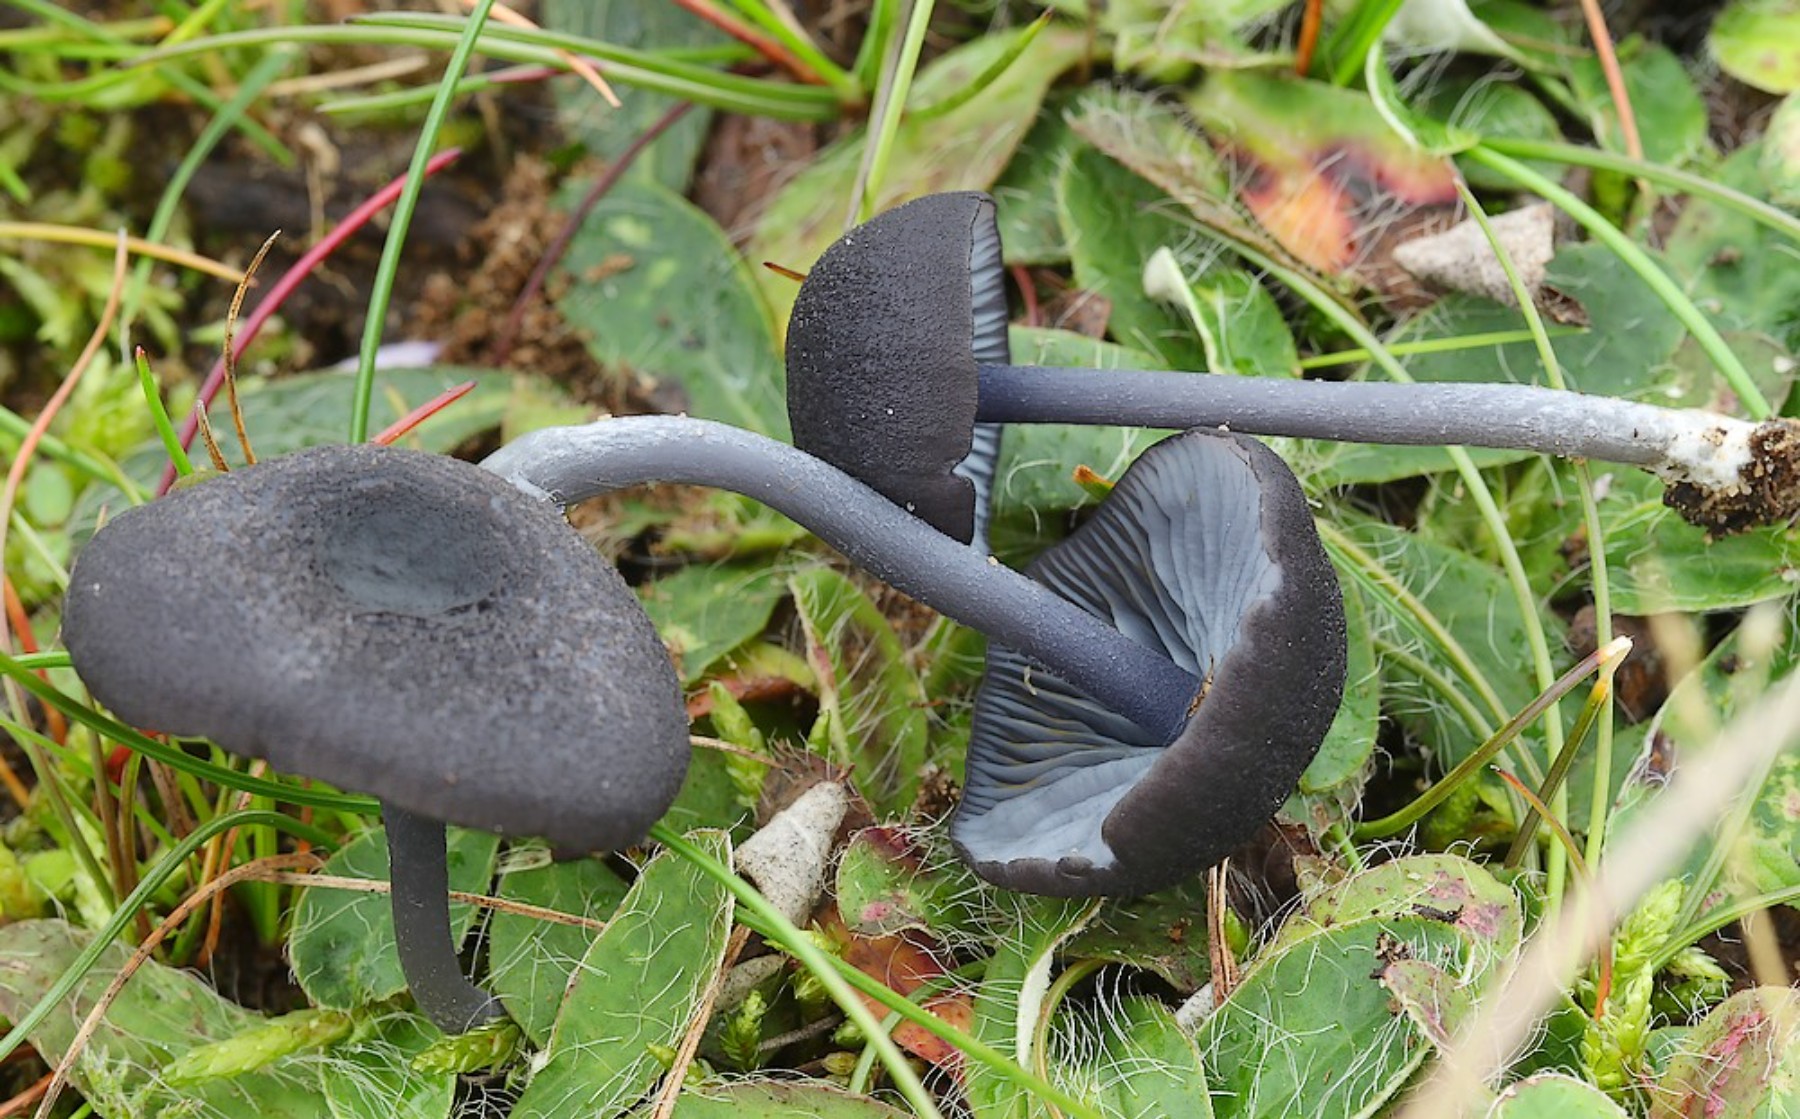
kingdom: Fungi
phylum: Basidiomycota
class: Agaricomycetes
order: Agaricales
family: Entolomataceae
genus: Entoloma
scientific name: Entoloma chalybeum
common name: blåbladet rødblad
